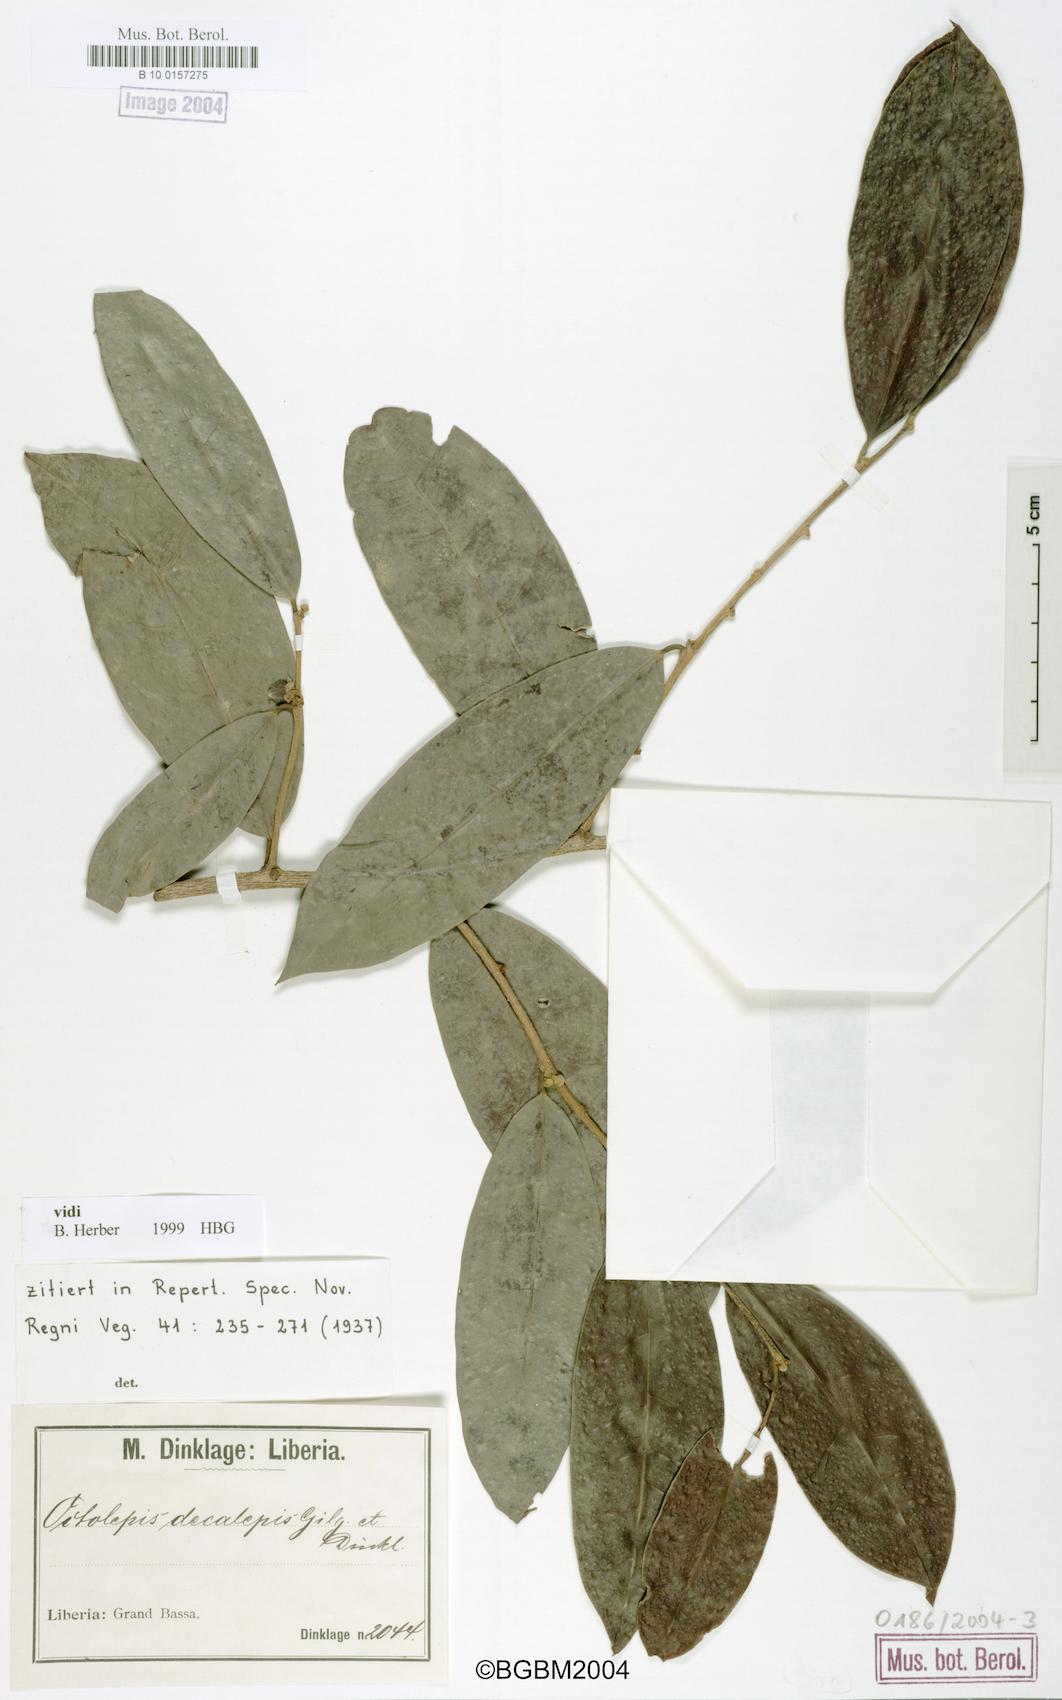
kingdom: Plantae
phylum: Tracheophyta
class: Magnoliopsida
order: Malvales
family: Thymelaeaceae
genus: Octolepis
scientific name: Octolepis decalepis
